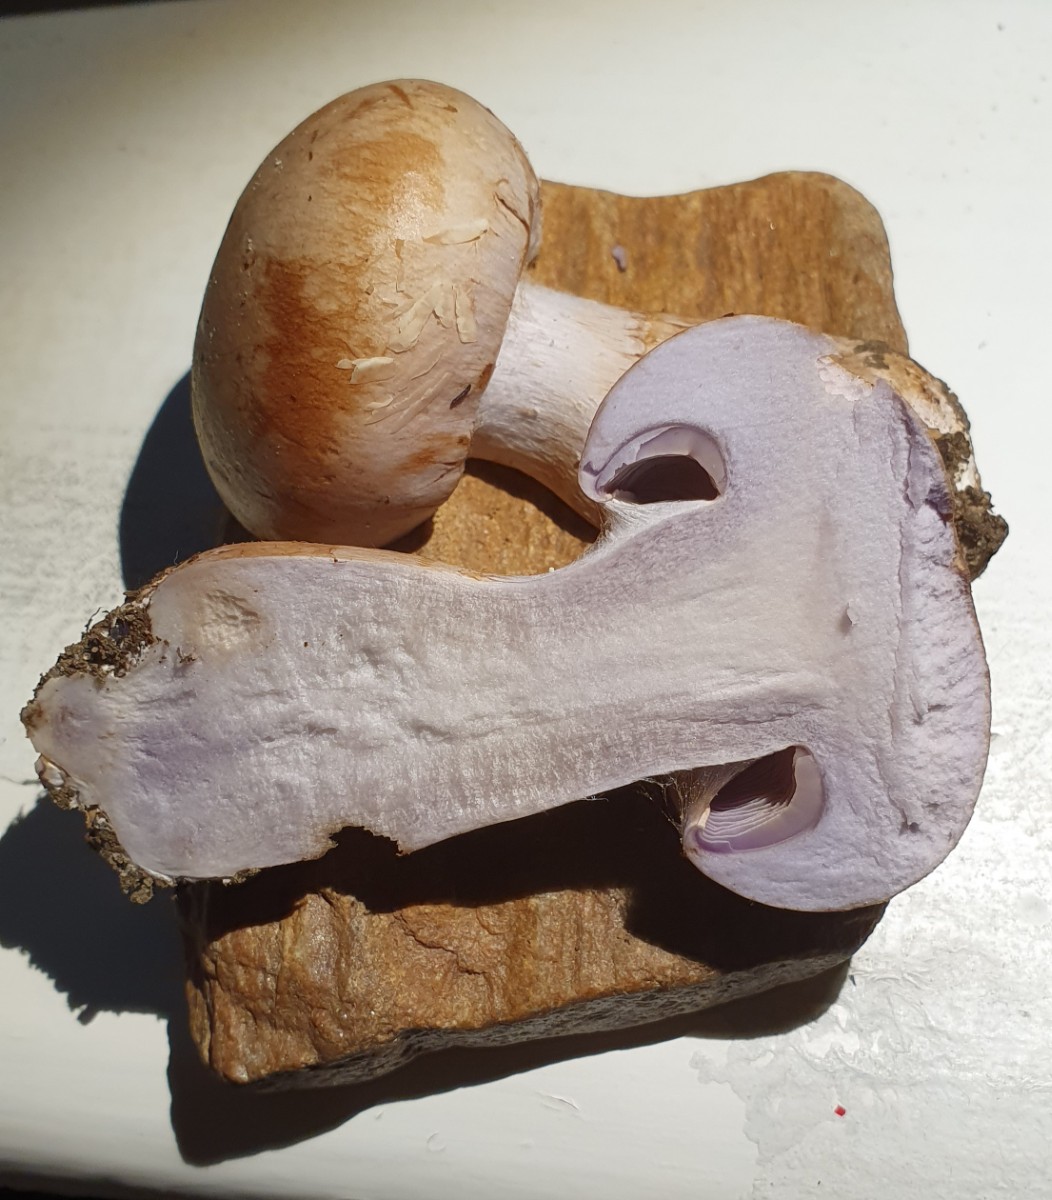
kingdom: Fungi
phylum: Basidiomycota
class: Agaricomycetes
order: Agaricales
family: Cortinariaceae
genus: Cortinarius
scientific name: Cortinarius largus
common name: violetrandet slørhat
